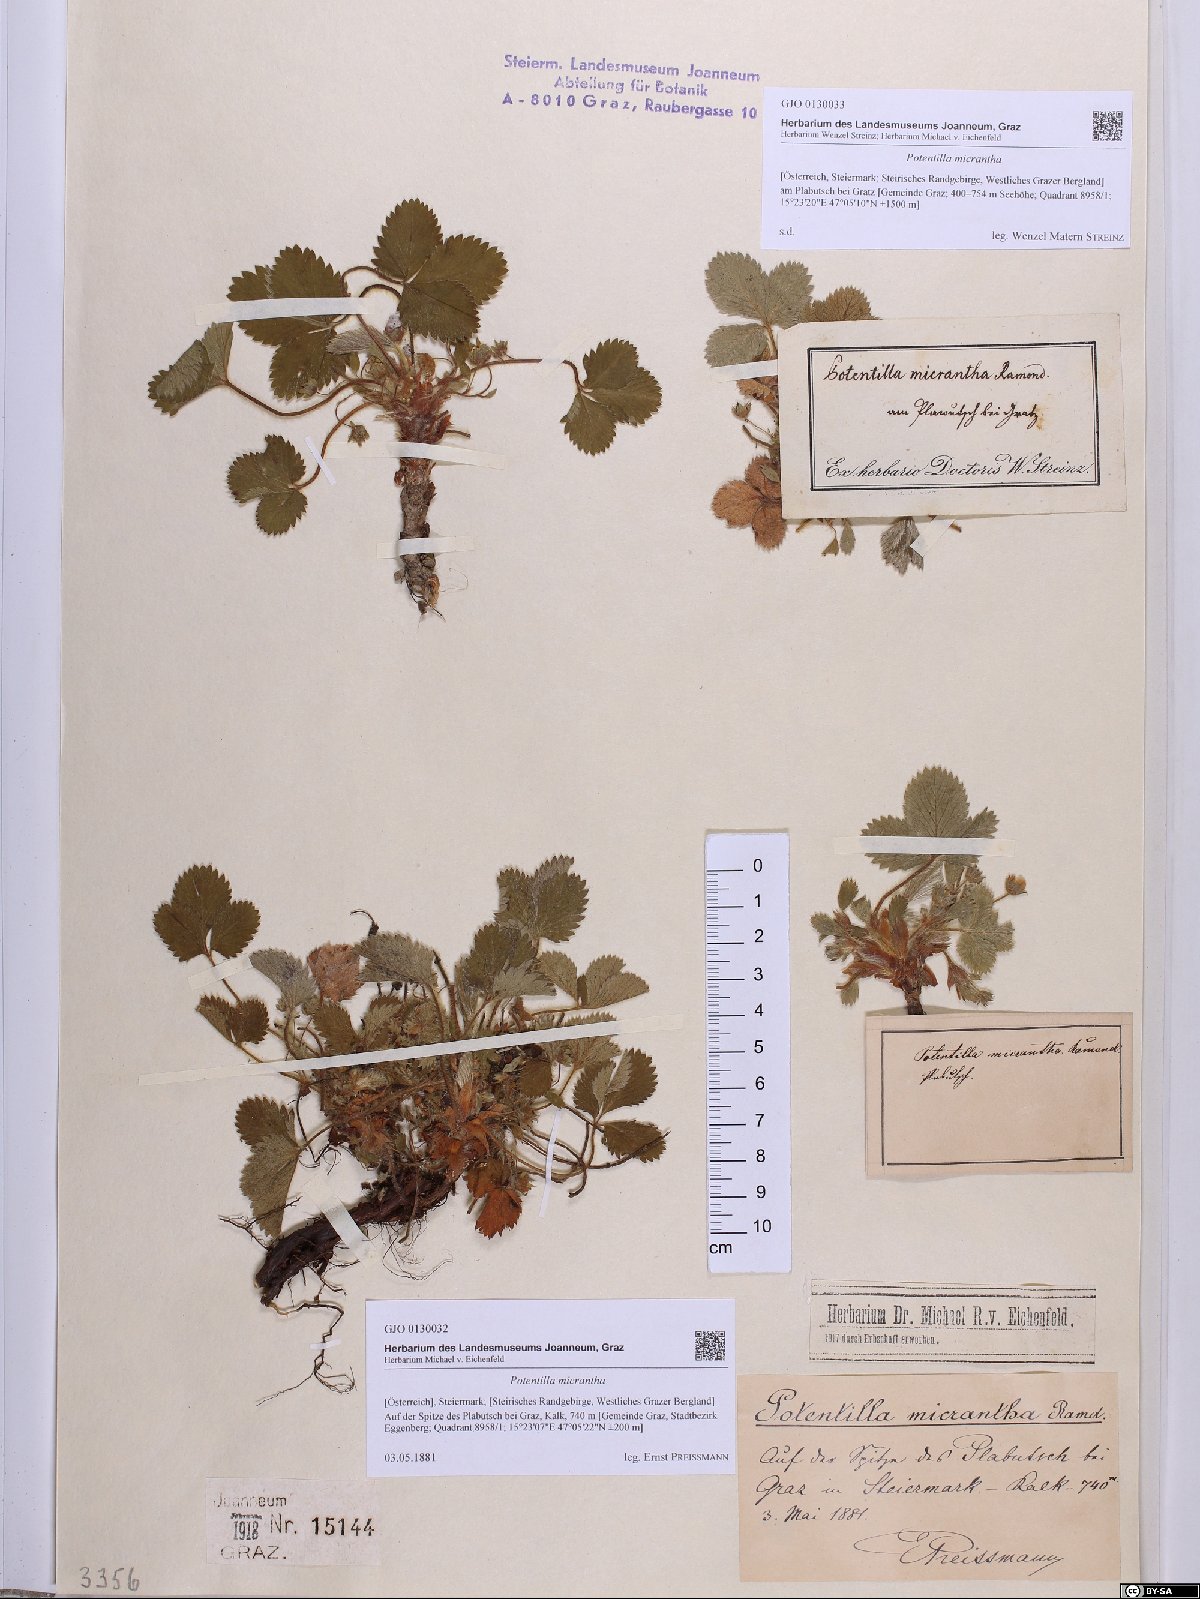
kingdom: Plantae
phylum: Tracheophyta
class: Magnoliopsida
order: Rosales
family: Rosaceae
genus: Potentilla
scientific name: Potentilla micrantha
